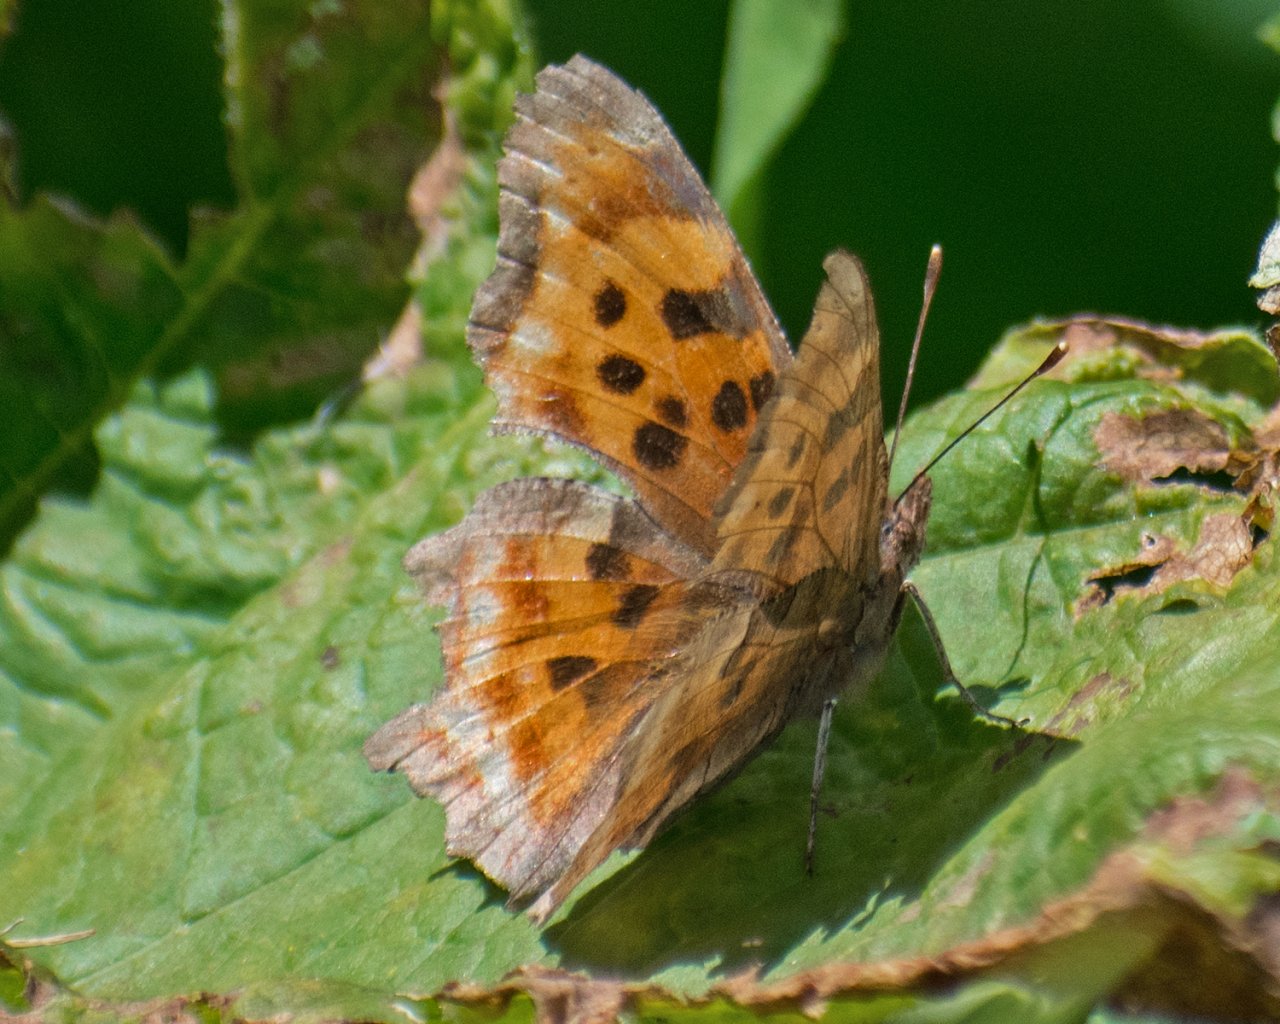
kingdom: Animalia
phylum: Arthropoda
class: Insecta
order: Lepidoptera
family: Nymphalidae
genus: Polygonia
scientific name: Polygonia satyrus
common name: Satyr Comma
